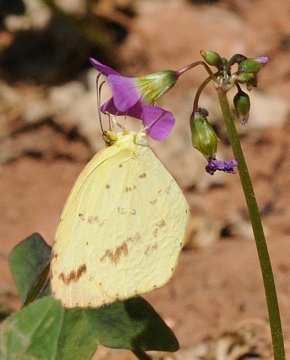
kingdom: Animalia
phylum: Arthropoda
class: Insecta
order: Lepidoptera
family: Pieridae
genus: Eurema
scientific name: Eurema
